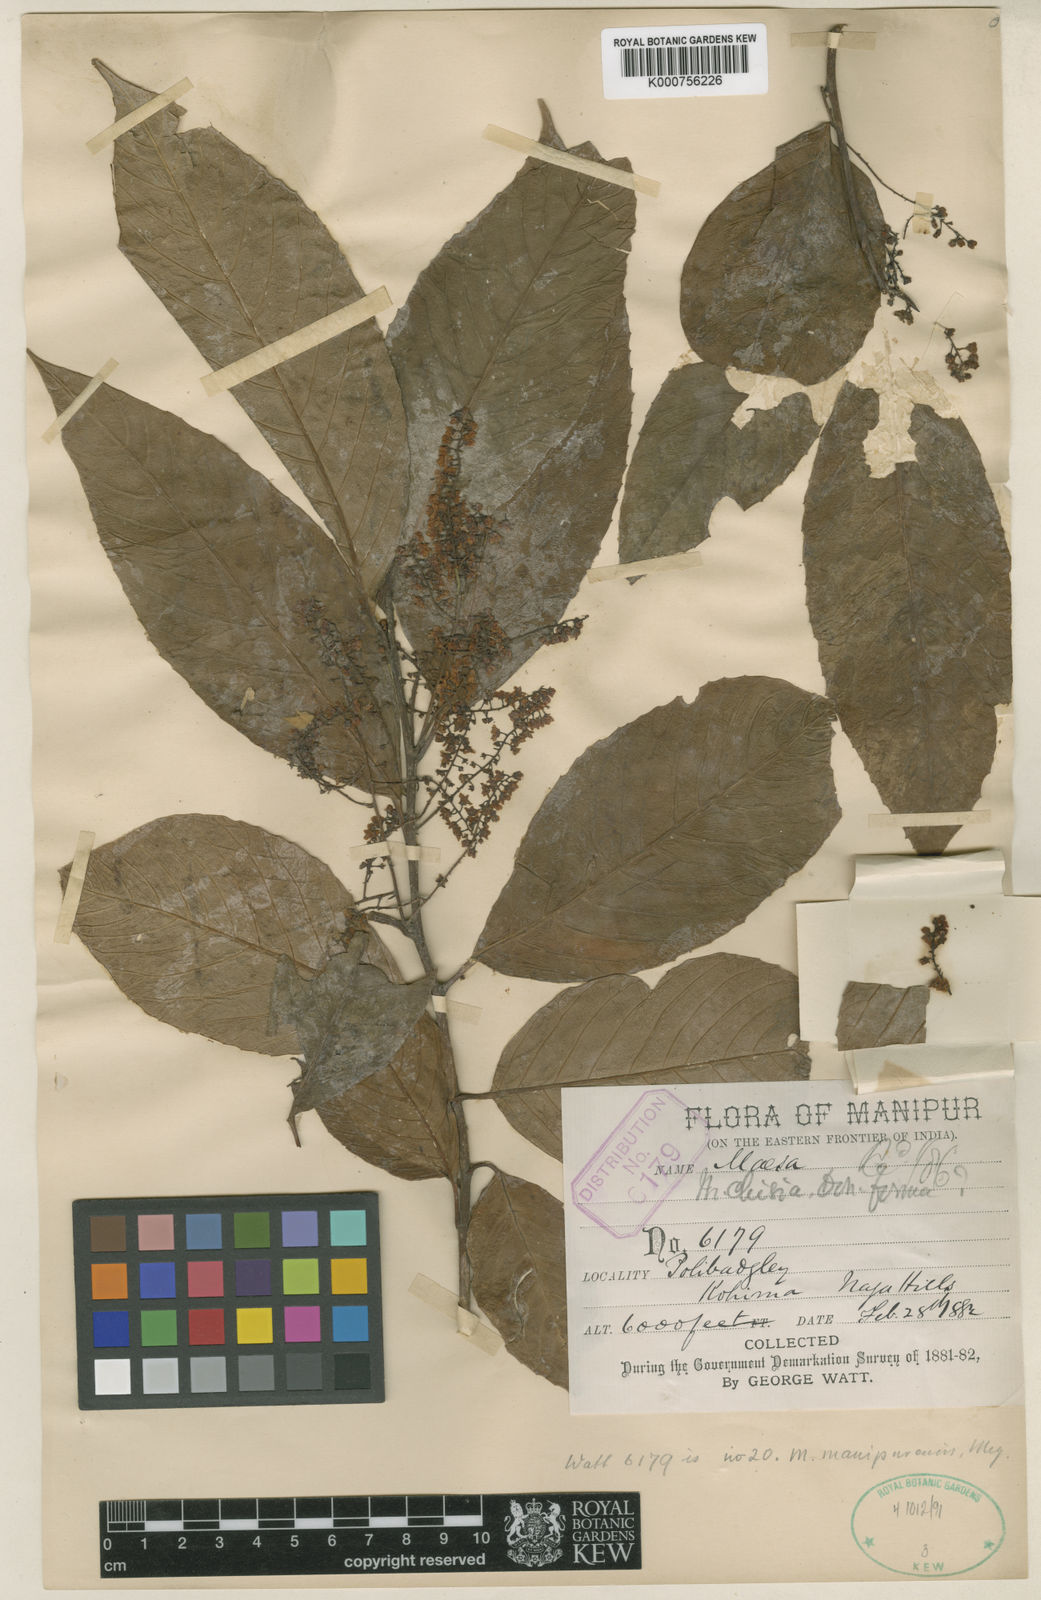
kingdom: Plantae
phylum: Tracheophyta
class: Magnoliopsida
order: Ericales
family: Primulaceae
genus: Maesa
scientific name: Maesa manipurensis
